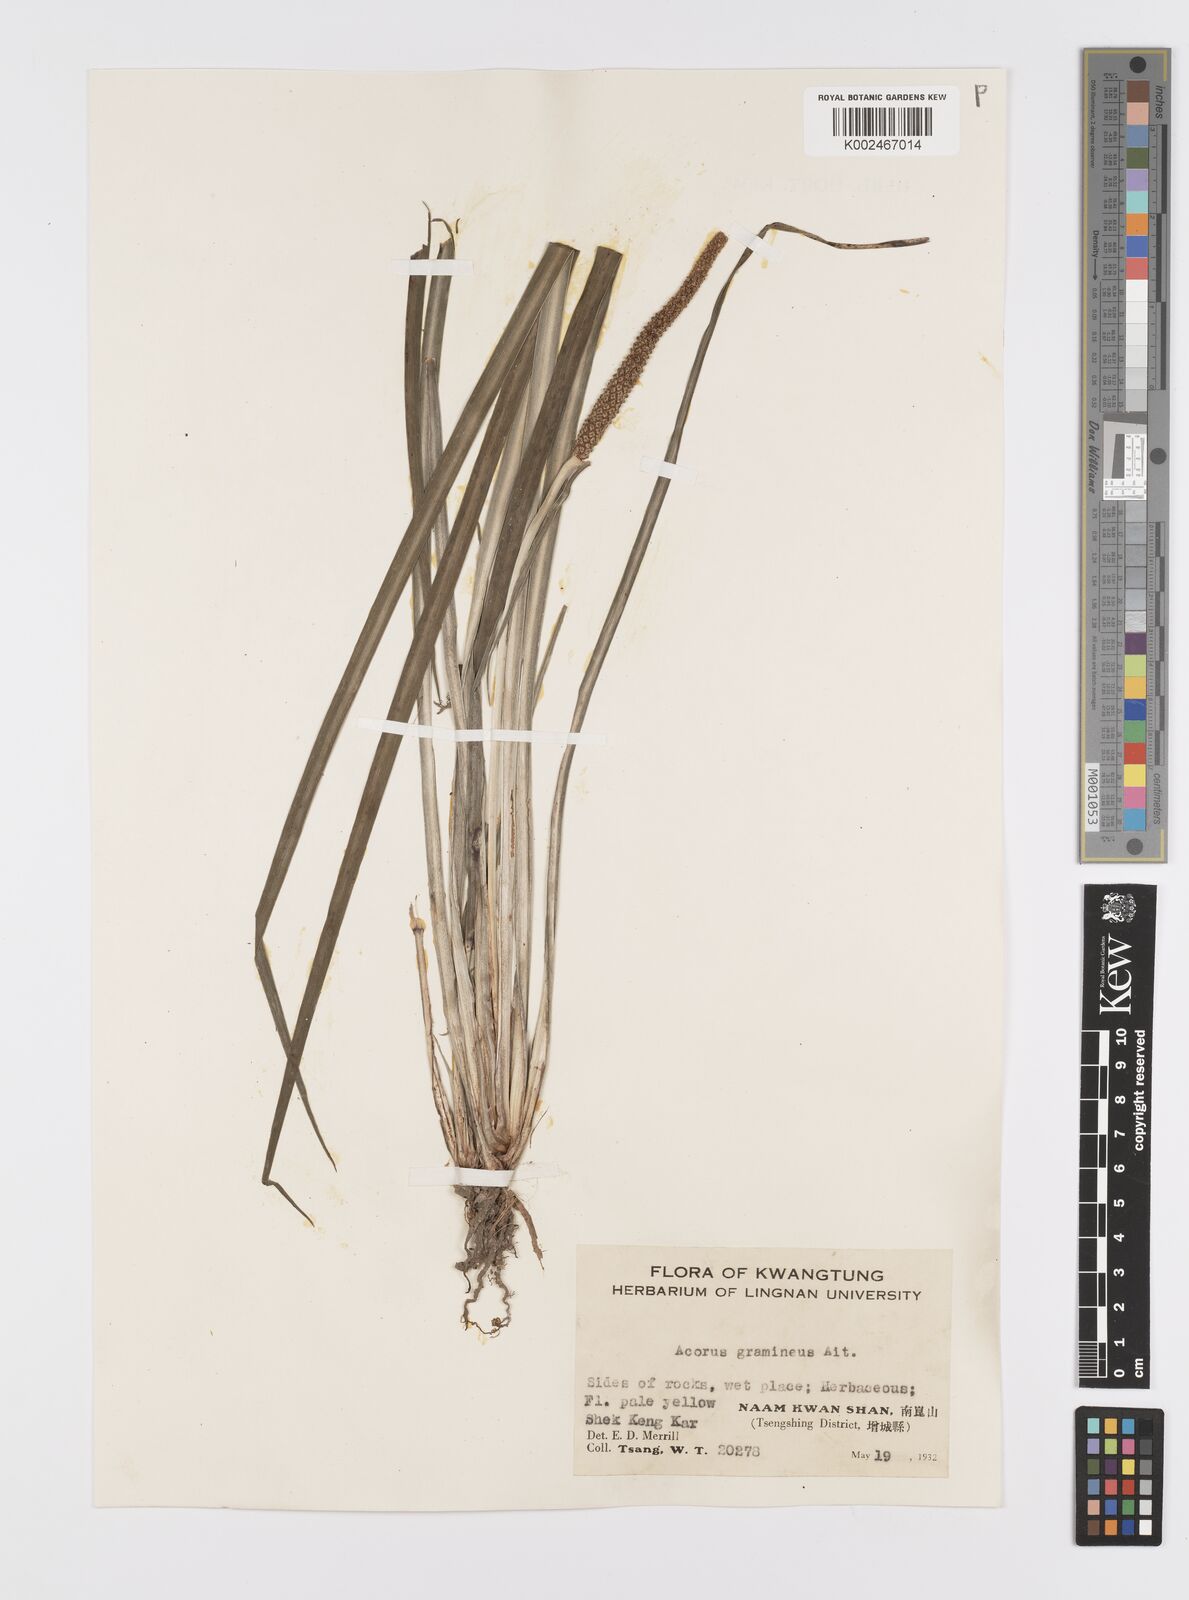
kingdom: Plantae
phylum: Tracheophyta
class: Liliopsida
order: Acorales
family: Acoraceae
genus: Acorus
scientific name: Acorus gramineus
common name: Slender sweet-flag
